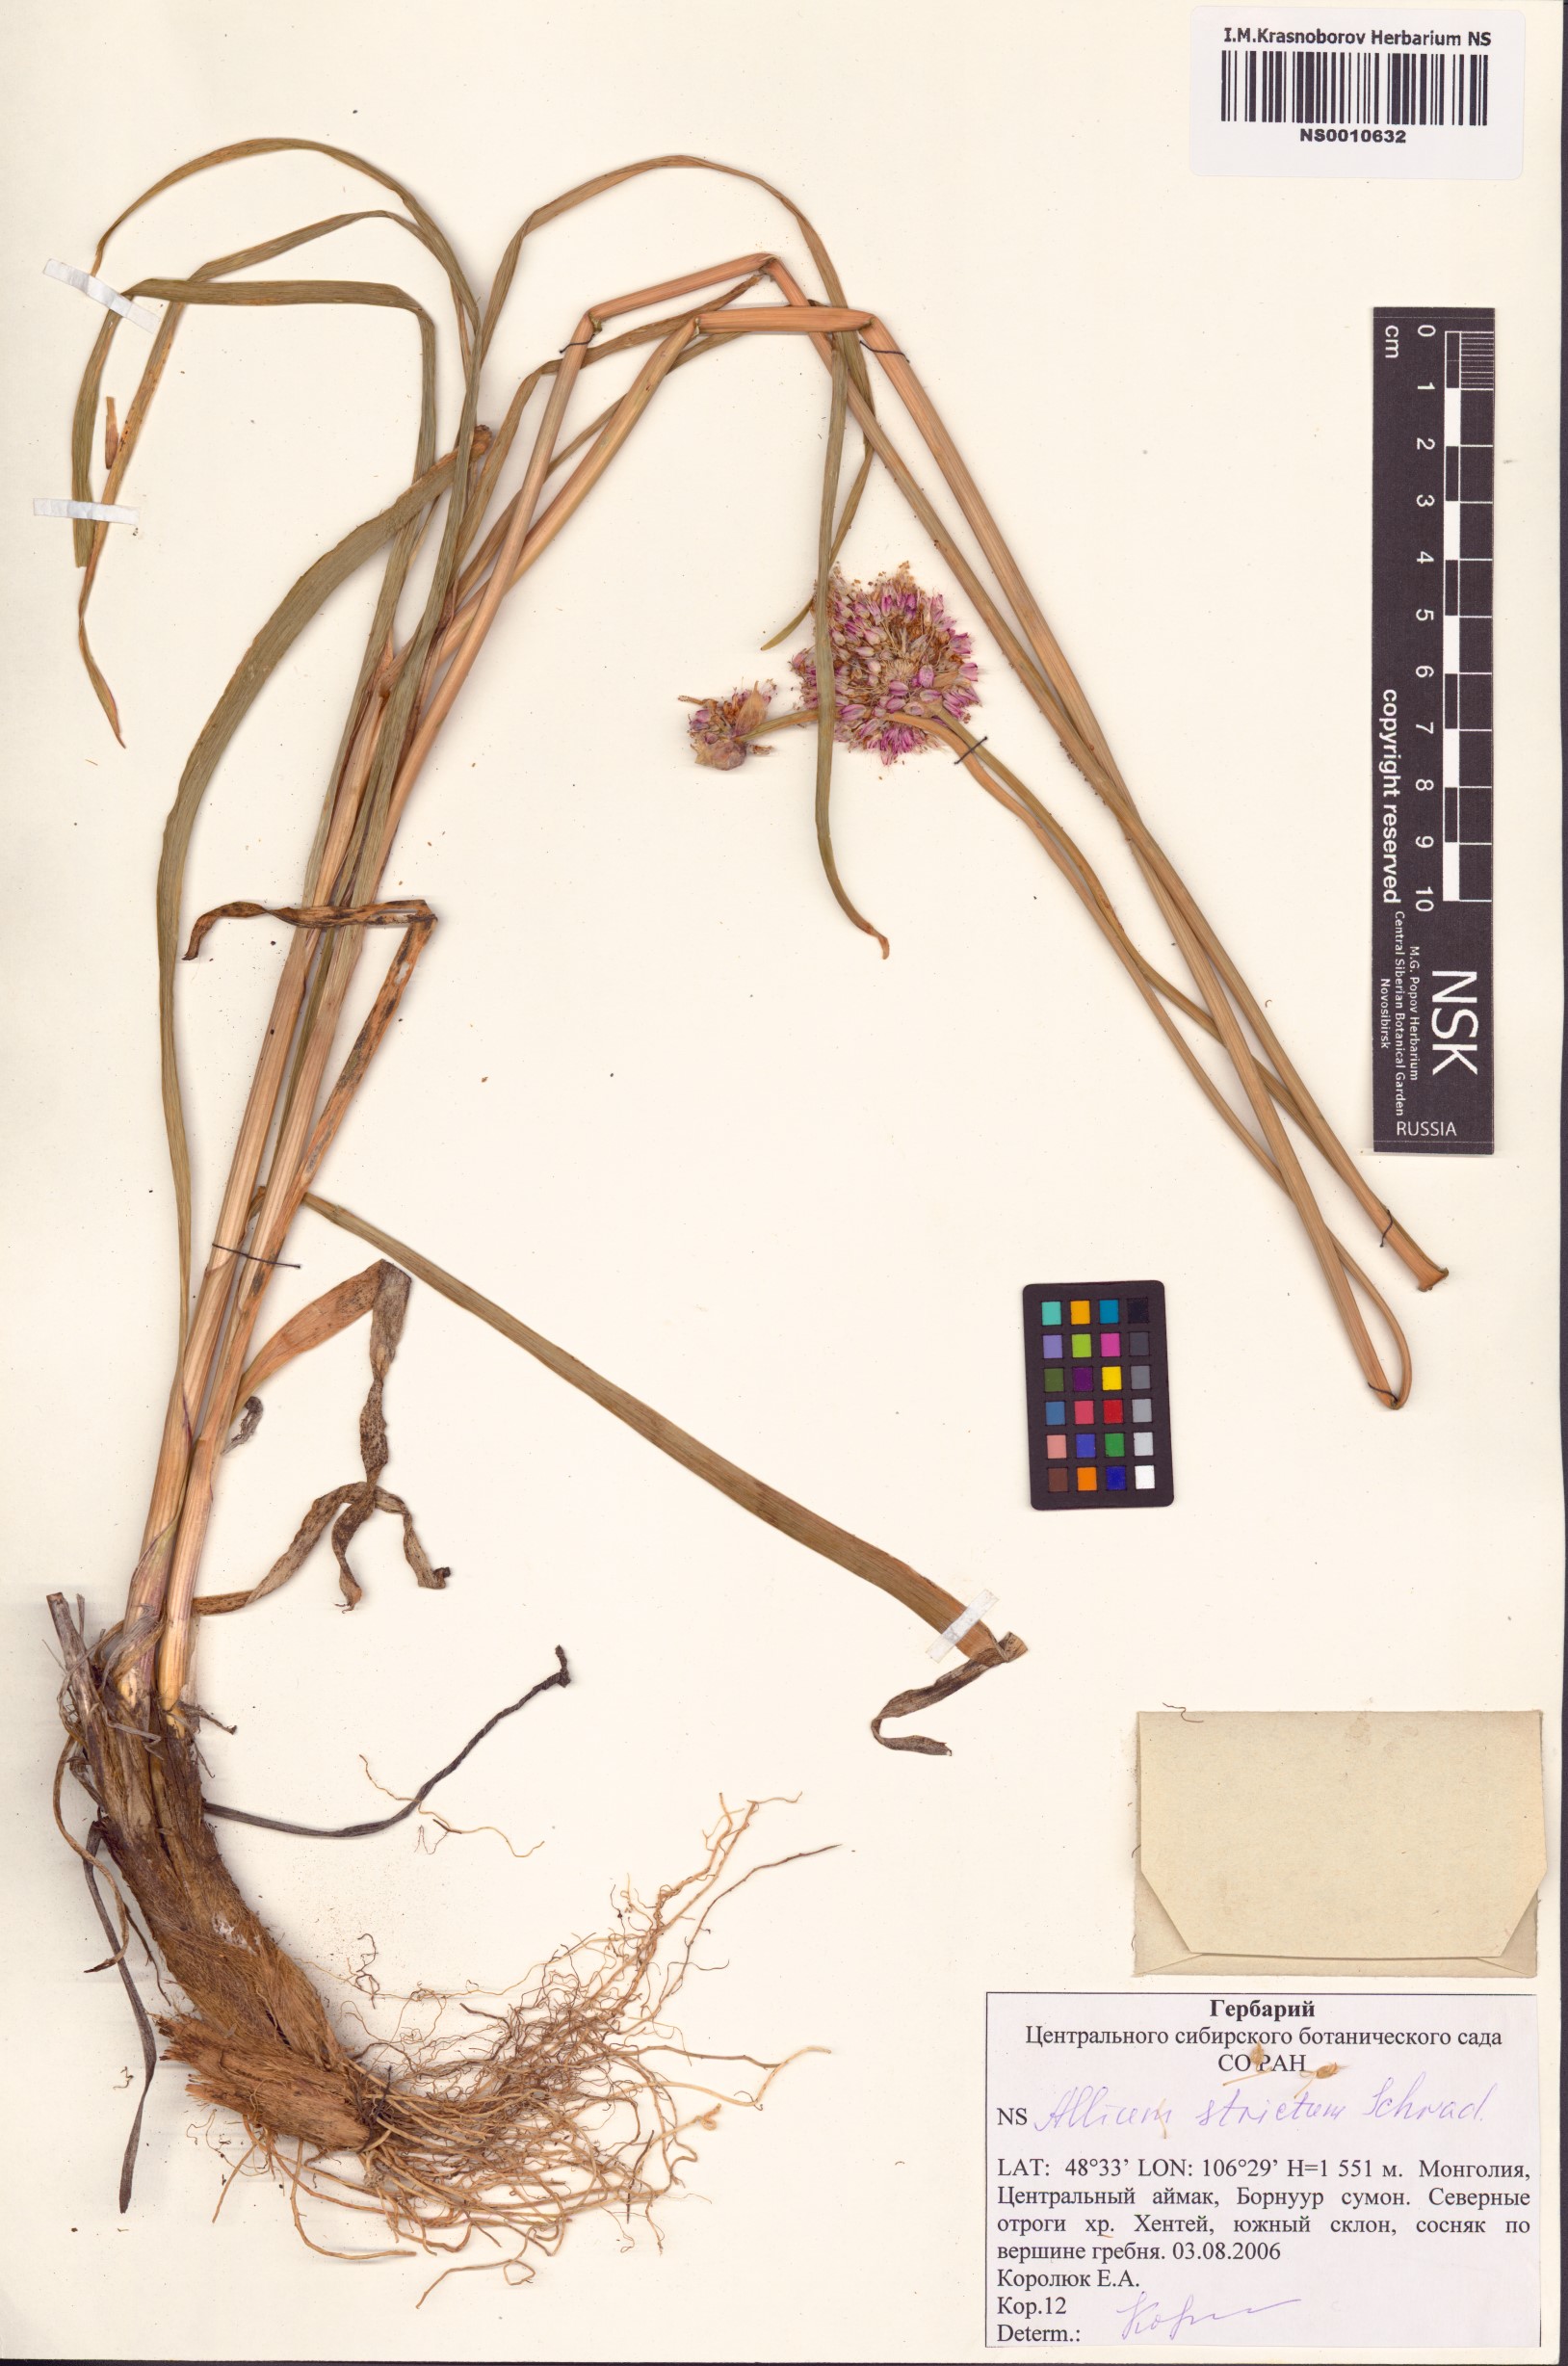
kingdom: Plantae
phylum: Tracheophyta
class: Liliopsida
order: Asparagales
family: Amaryllidaceae
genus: Allium
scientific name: Allium strictum
